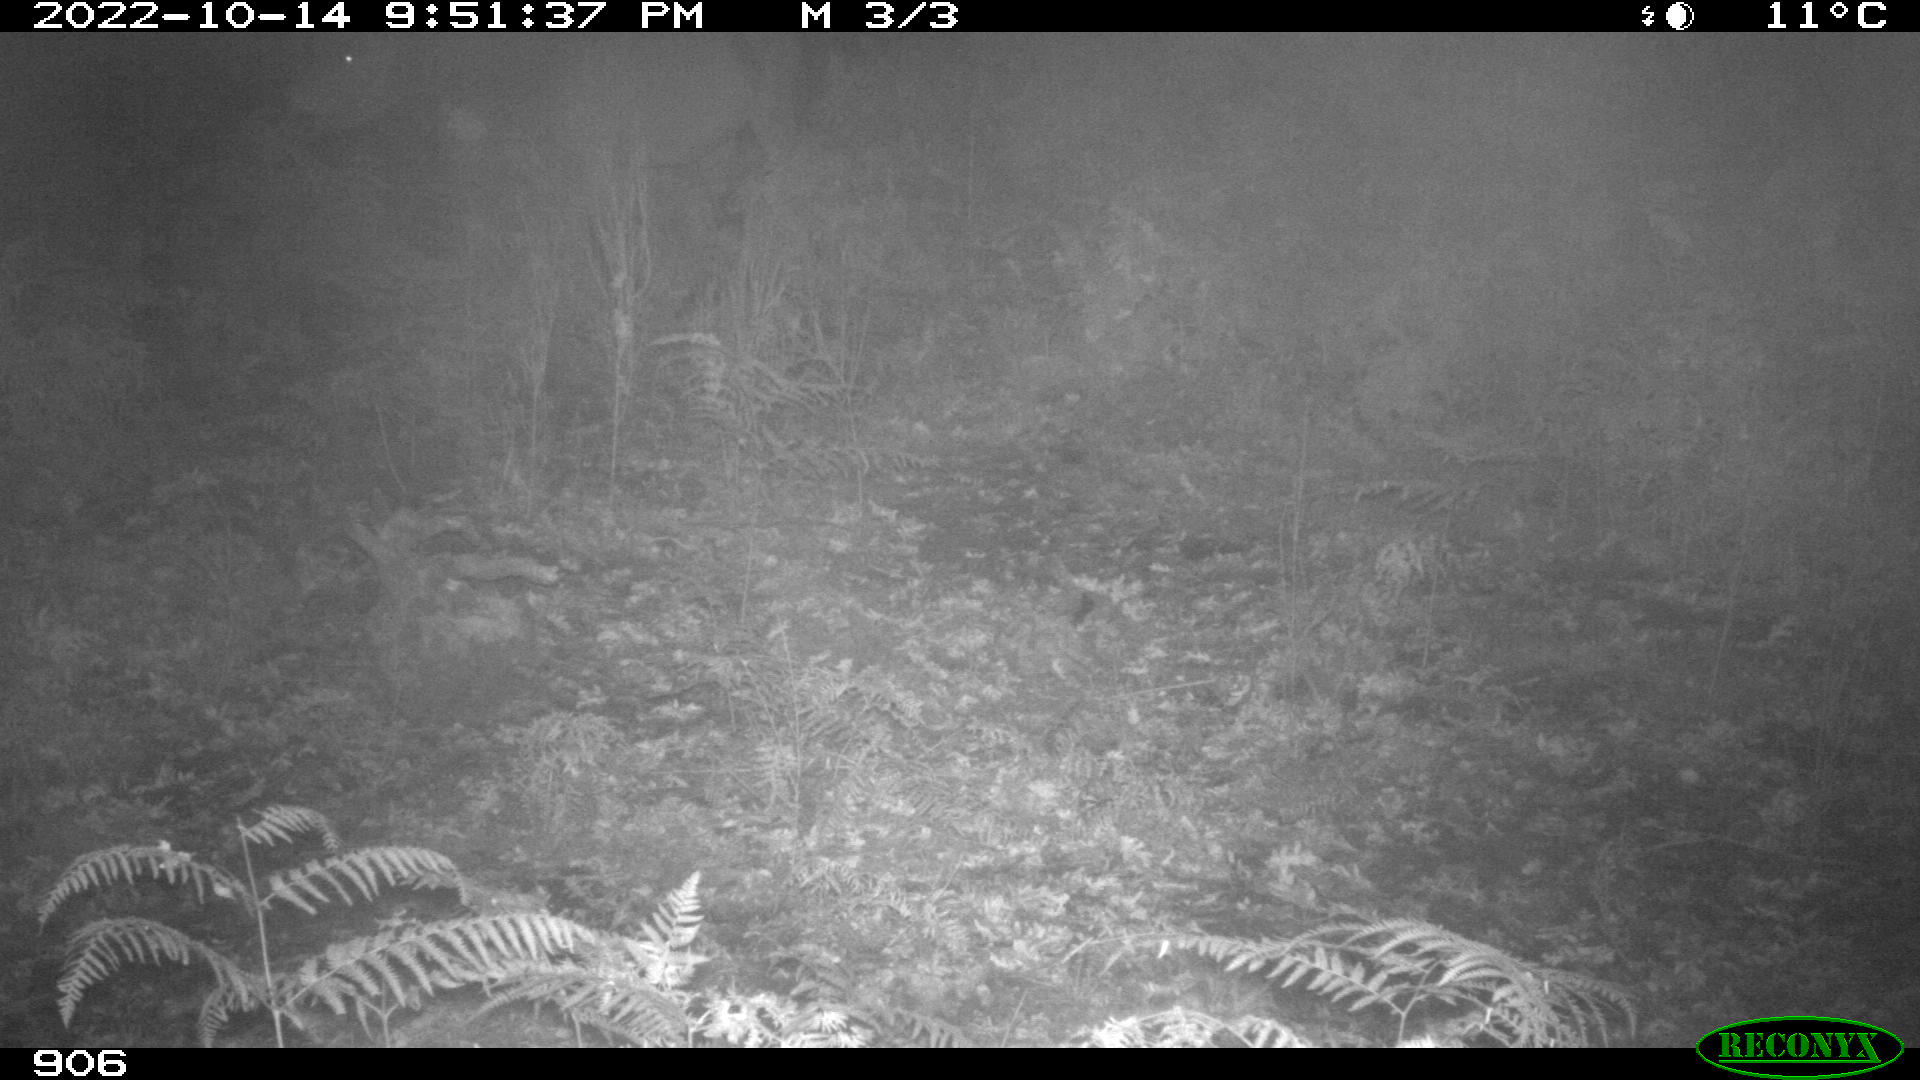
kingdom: Animalia
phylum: Chordata
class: Mammalia
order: Perissodactyla
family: Equidae
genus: Equus
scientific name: Equus caballus
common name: Horse
